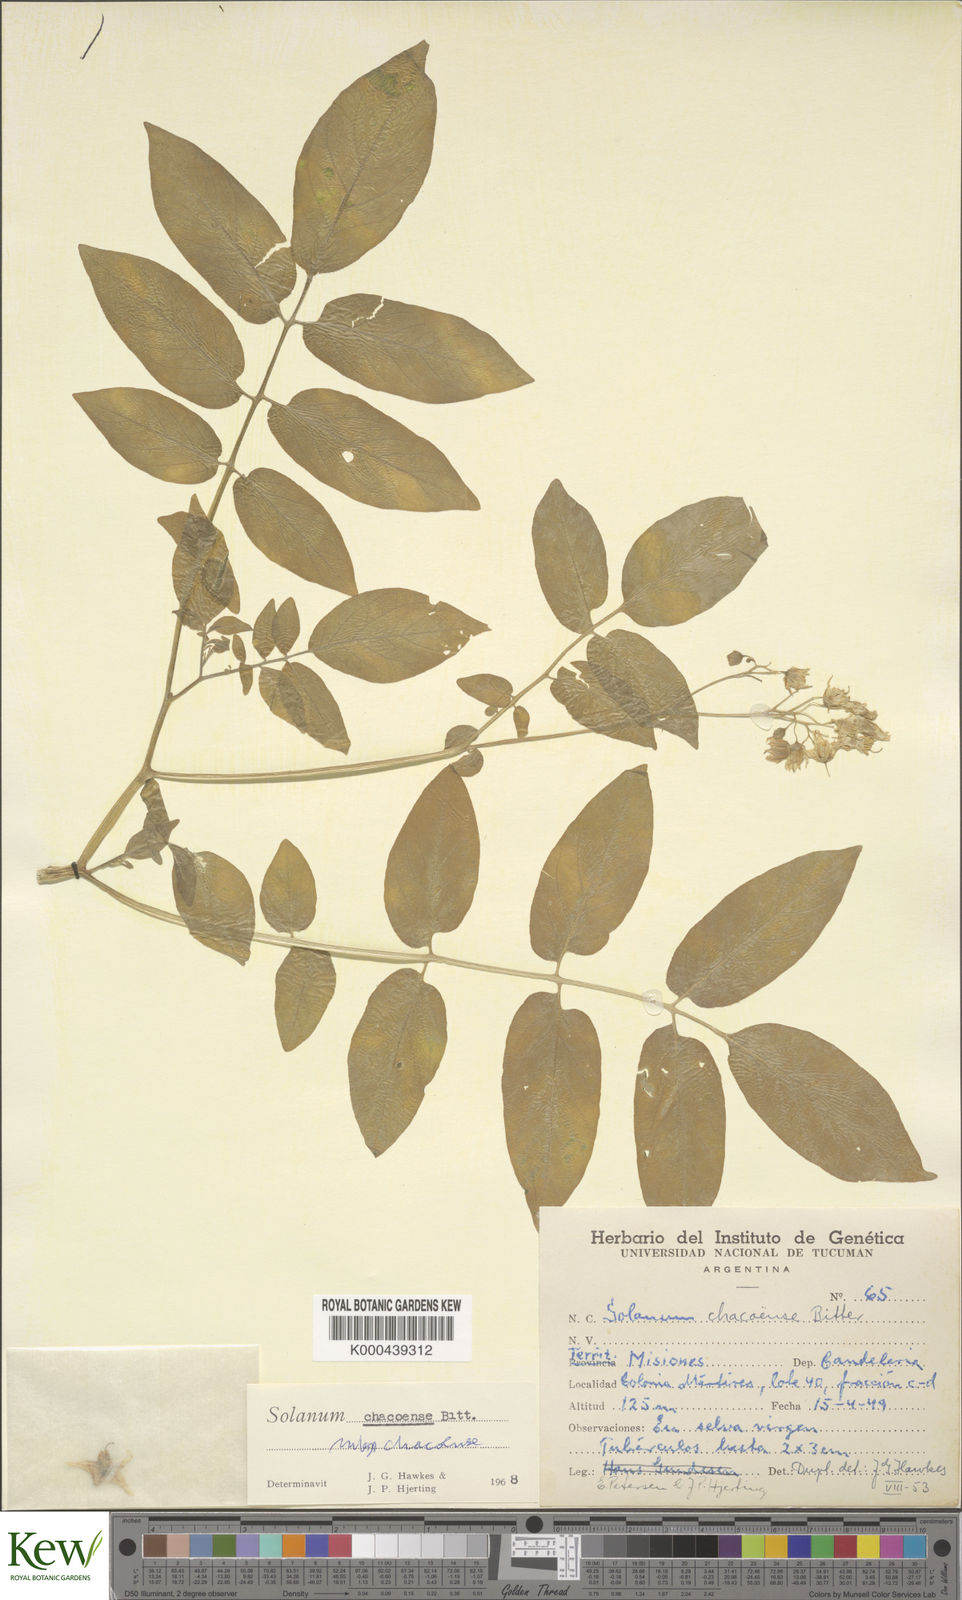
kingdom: Plantae
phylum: Tracheophyta
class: Magnoliopsida
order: Solanales
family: Solanaceae
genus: Solanum
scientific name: Solanum chacoense
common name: Chaco potato
